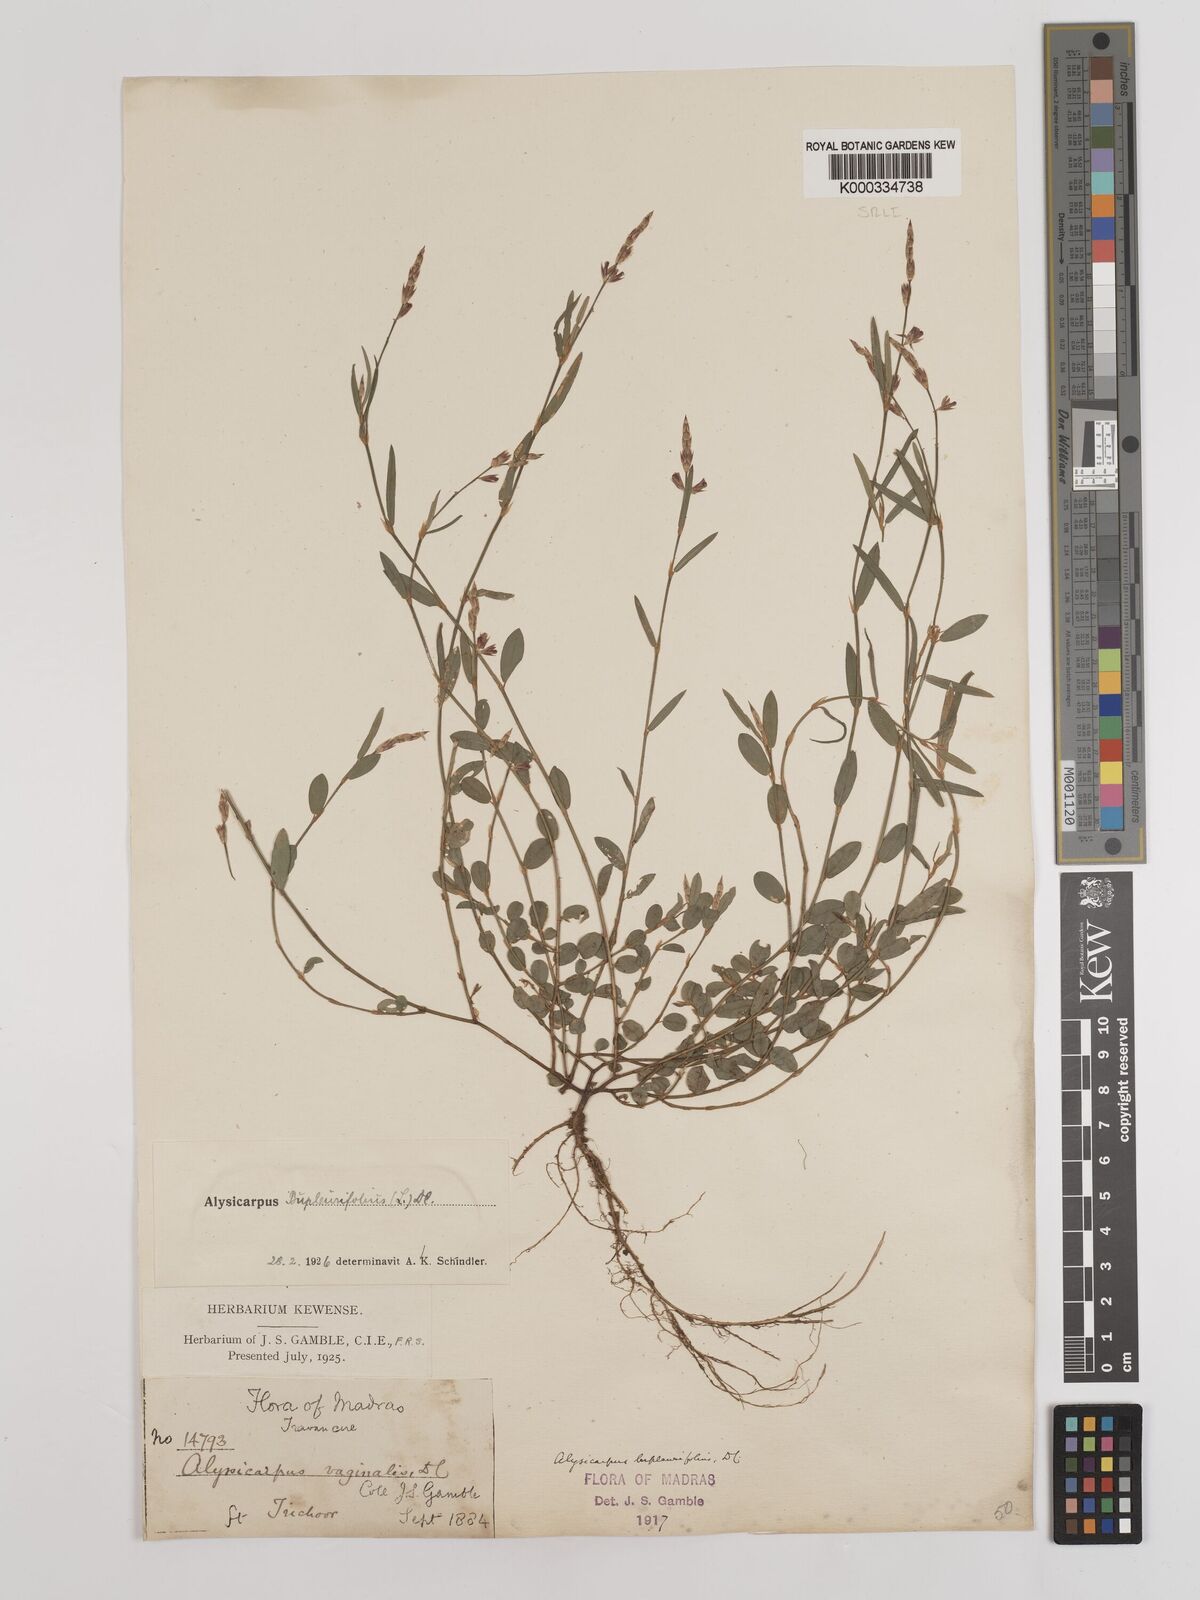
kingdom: Plantae
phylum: Tracheophyta
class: Magnoliopsida
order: Fabales
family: Fabaceae
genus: Alysicarpus
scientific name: Alysicarpus bupleurifolius
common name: Sweet alys
